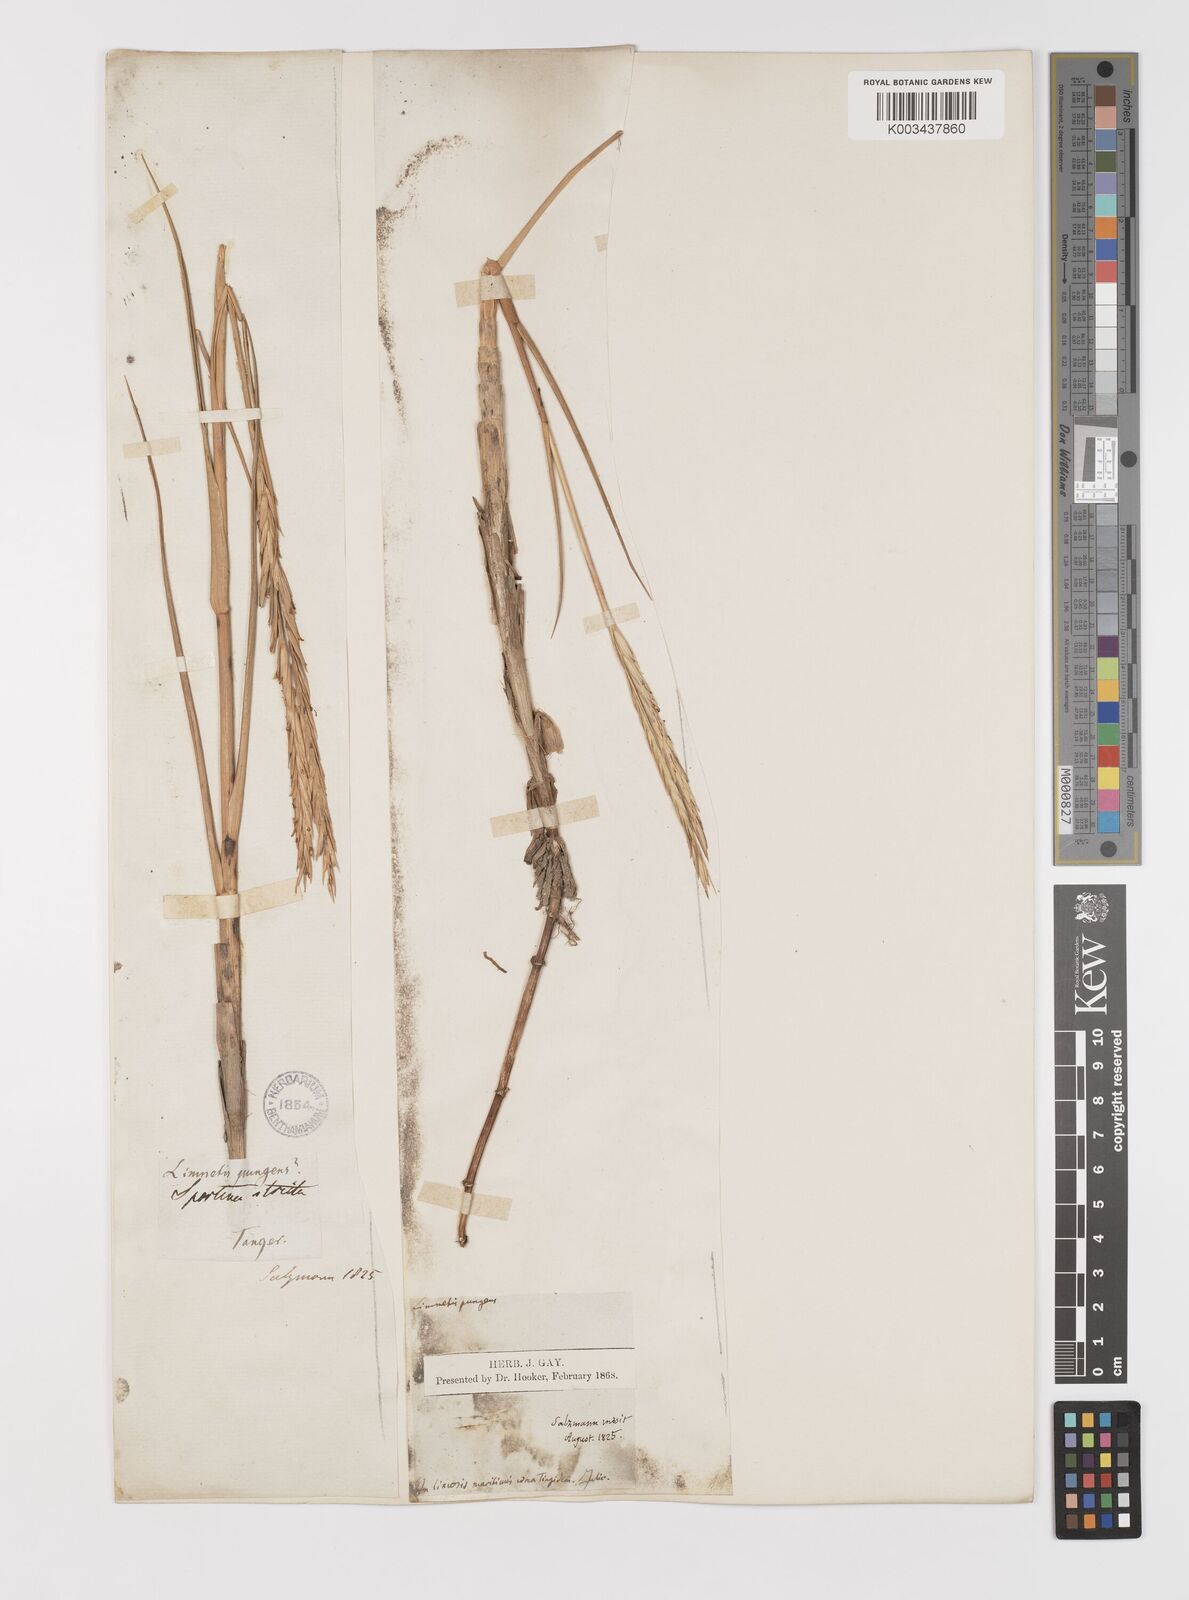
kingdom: Plantae
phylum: Tracheophyta
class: Liliopsida
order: Poales
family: Poaceae
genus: Sporobolus
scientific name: Sporobolus maritimus
